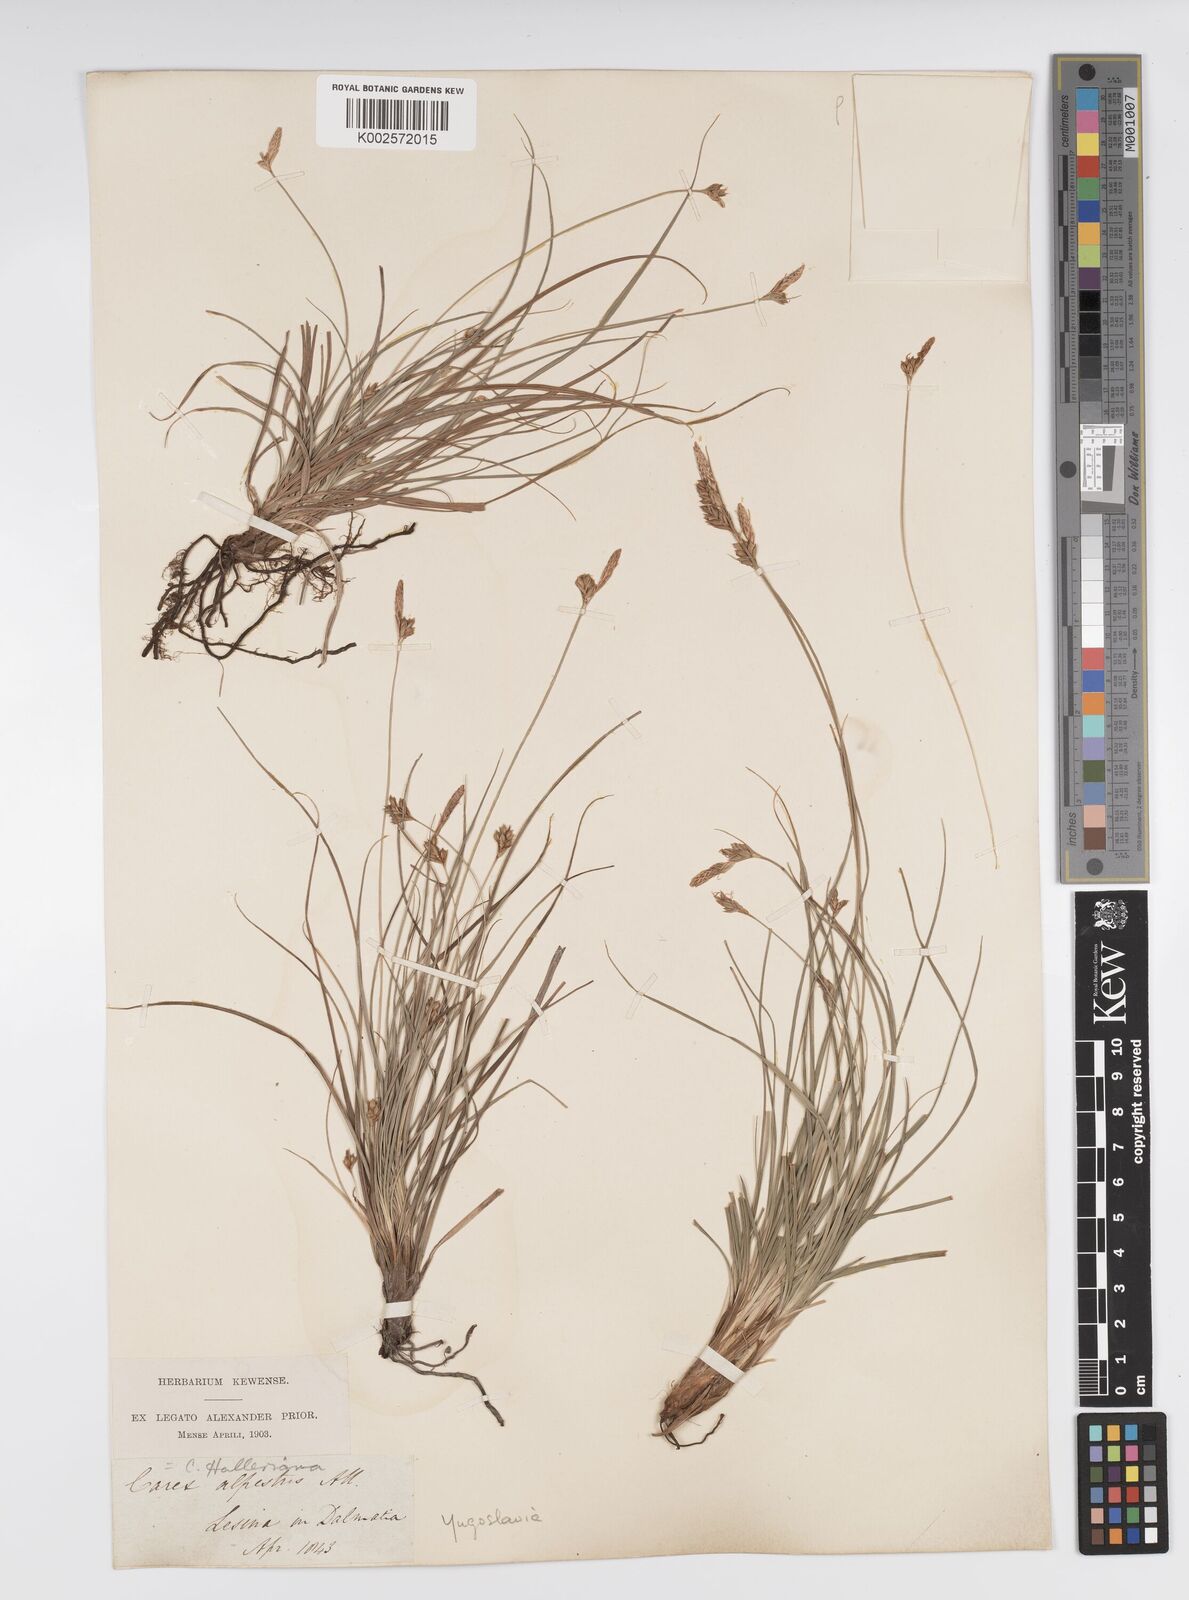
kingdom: Plantae
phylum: Tracheophyta
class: Liliopsida
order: Poales
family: Cyperaceae
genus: Carex
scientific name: Carex halleriana
